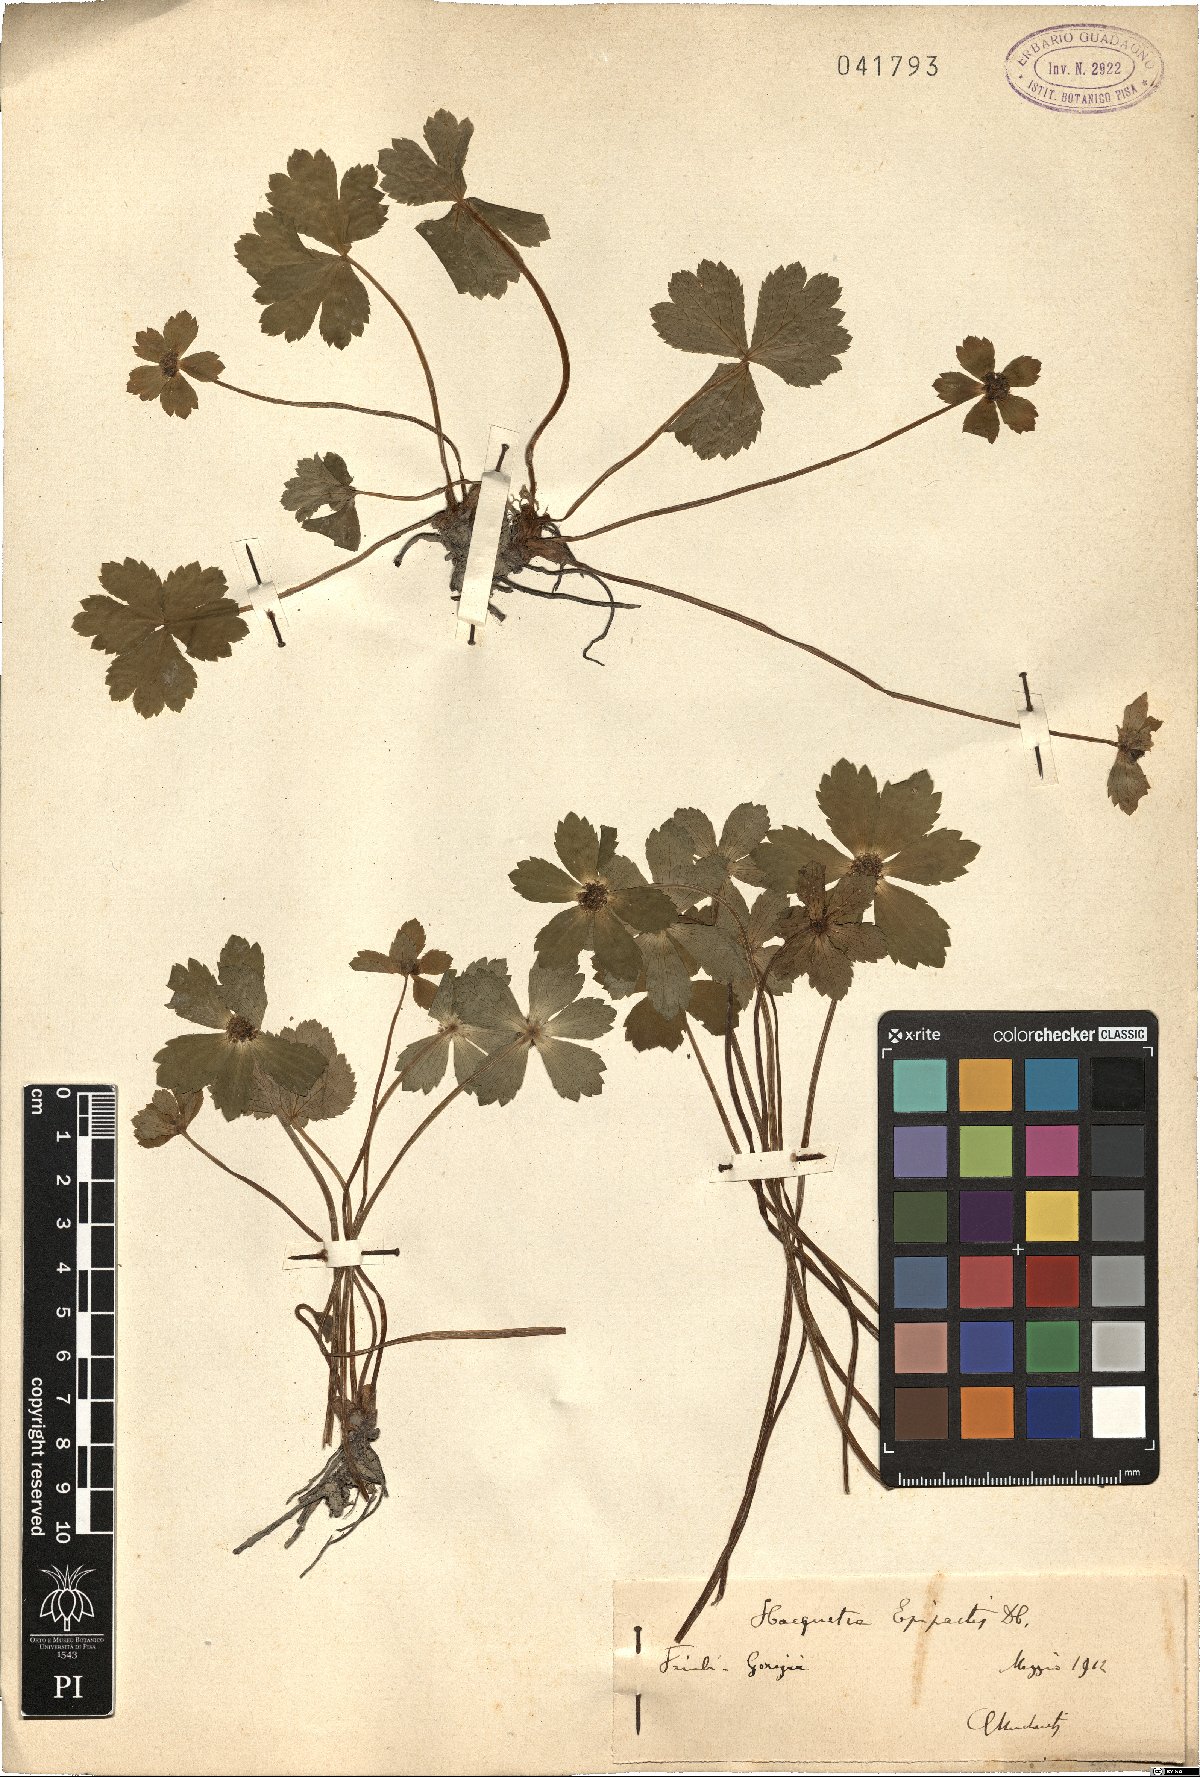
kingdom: Plantae
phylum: Tracheophyta
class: Magnoliopsida
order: Apiales
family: Apiaceae
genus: Sanicula
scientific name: Sanicula epipactis
